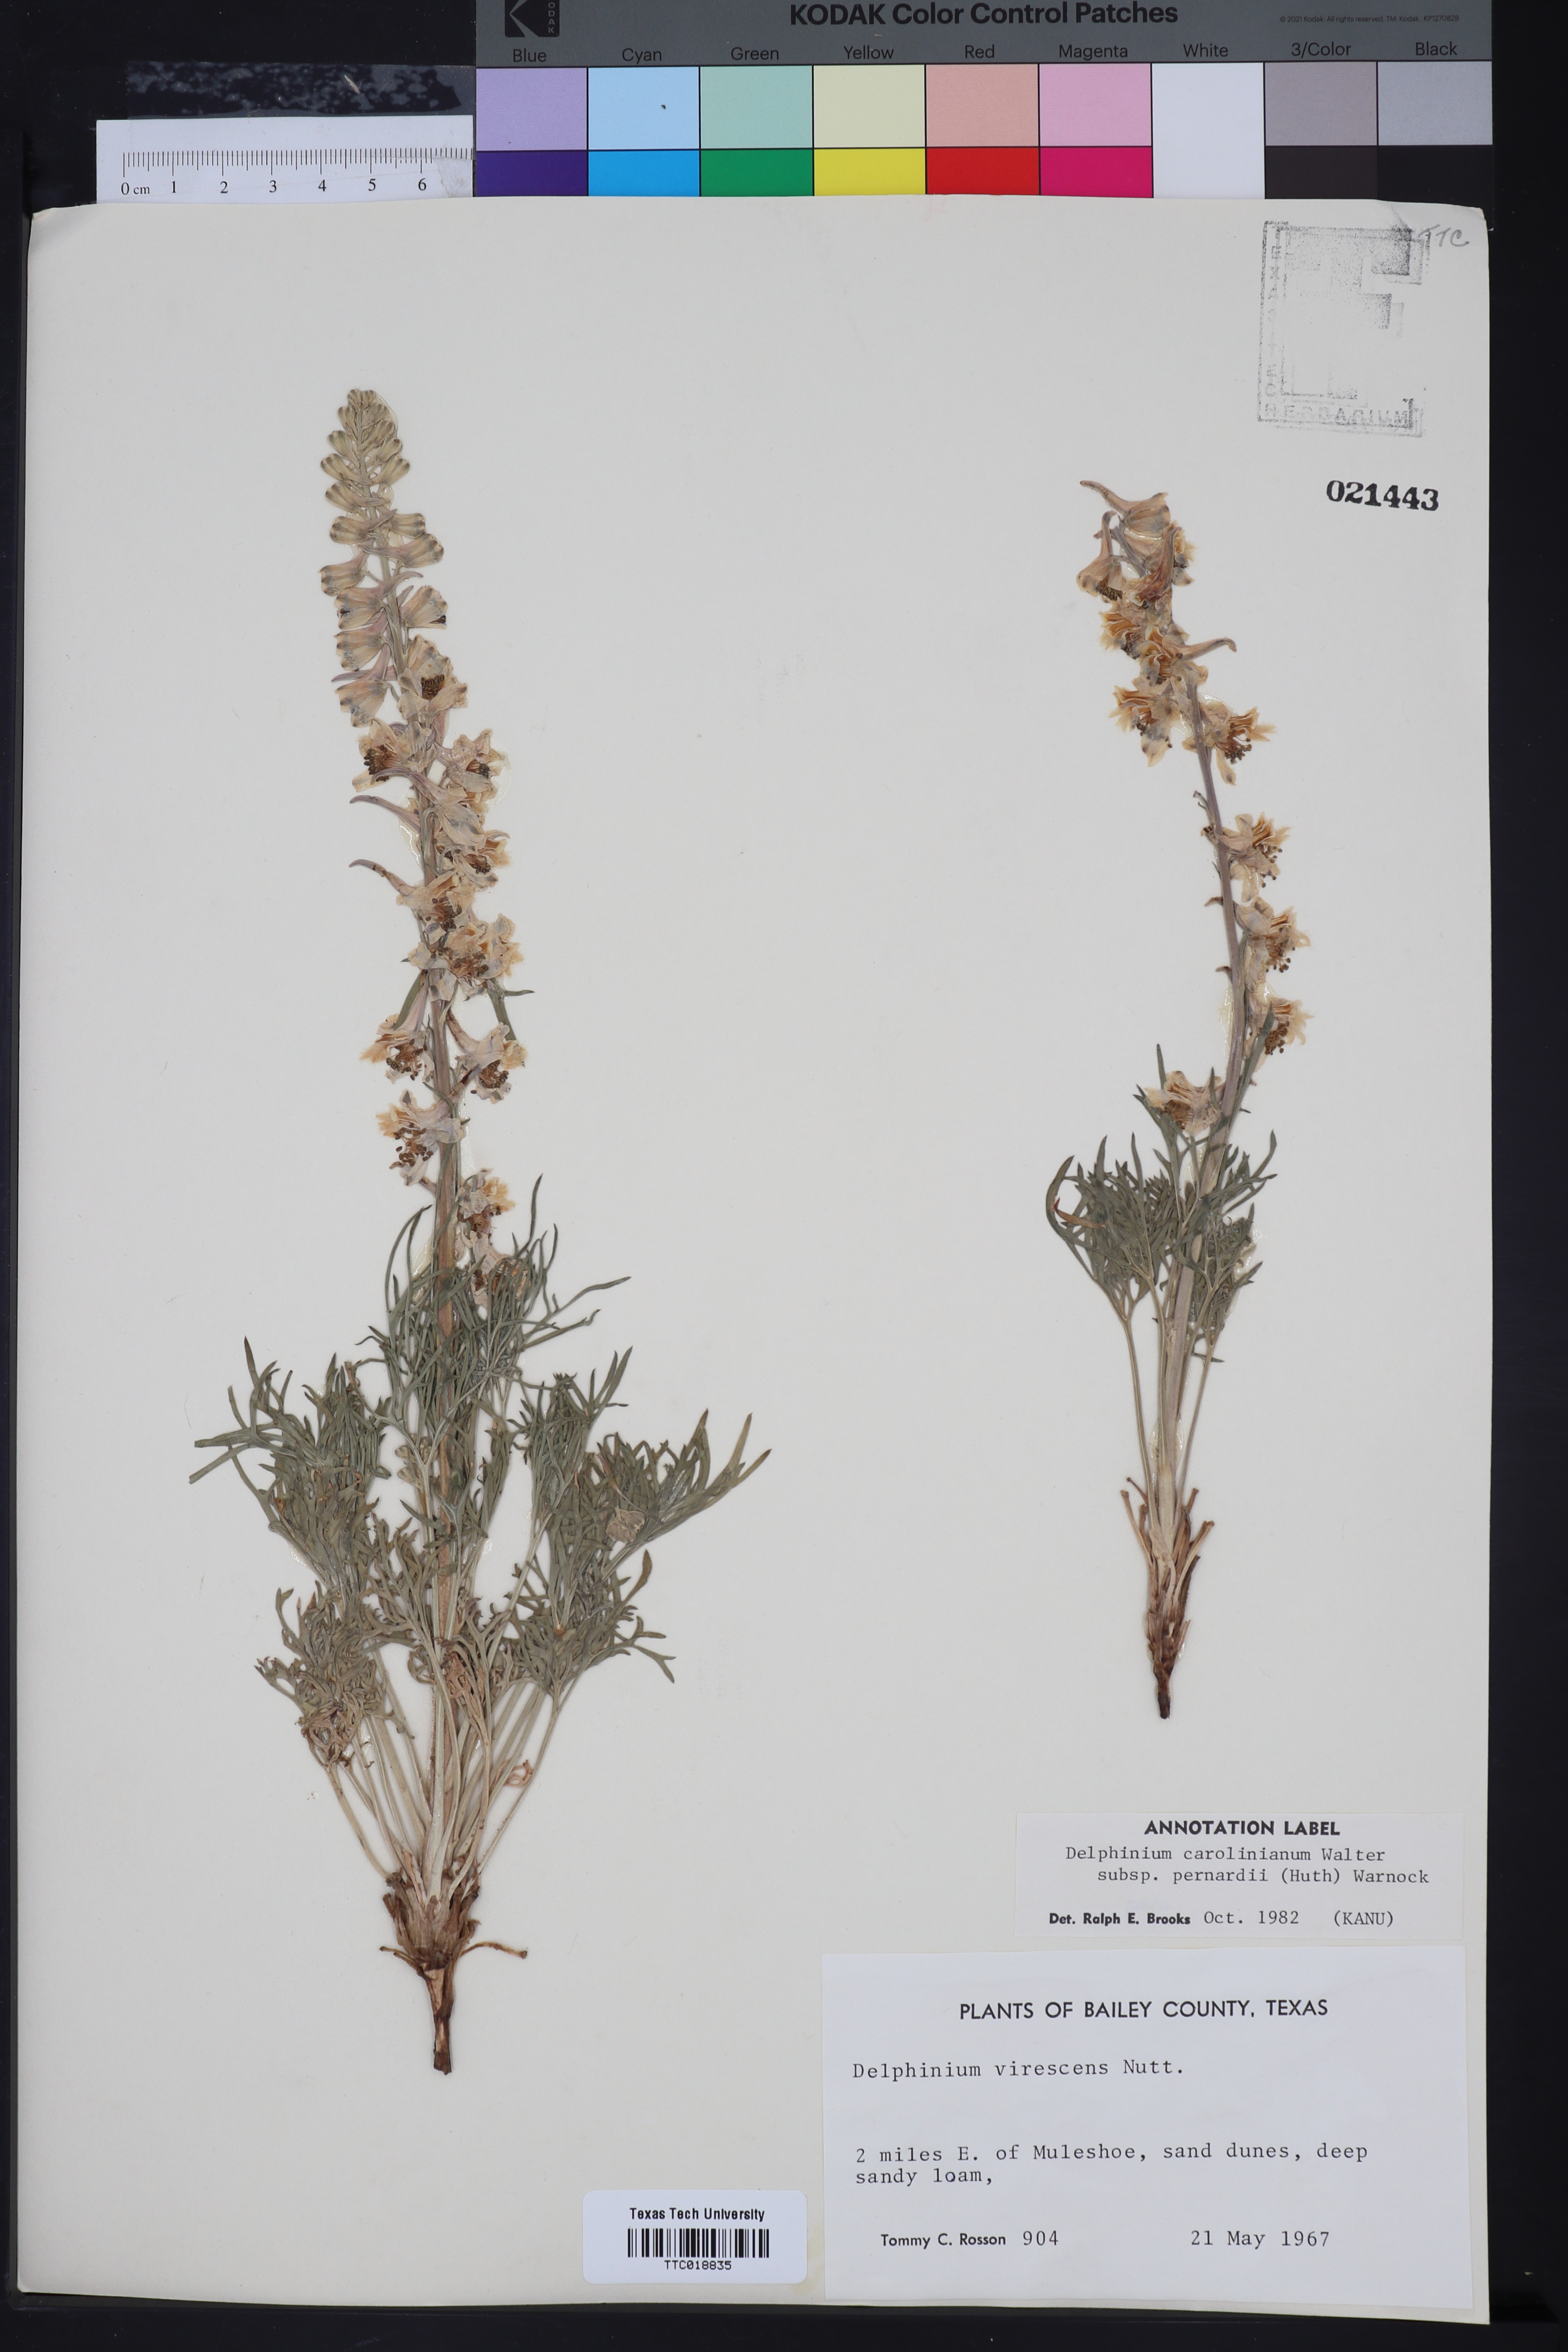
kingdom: Plantae
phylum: Tracheophyta
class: Magnoliopsida
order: Ranunculales
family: Ranunculaceae
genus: Delphinium
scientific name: Delphinium carolinianum
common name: Carolina larkspur
